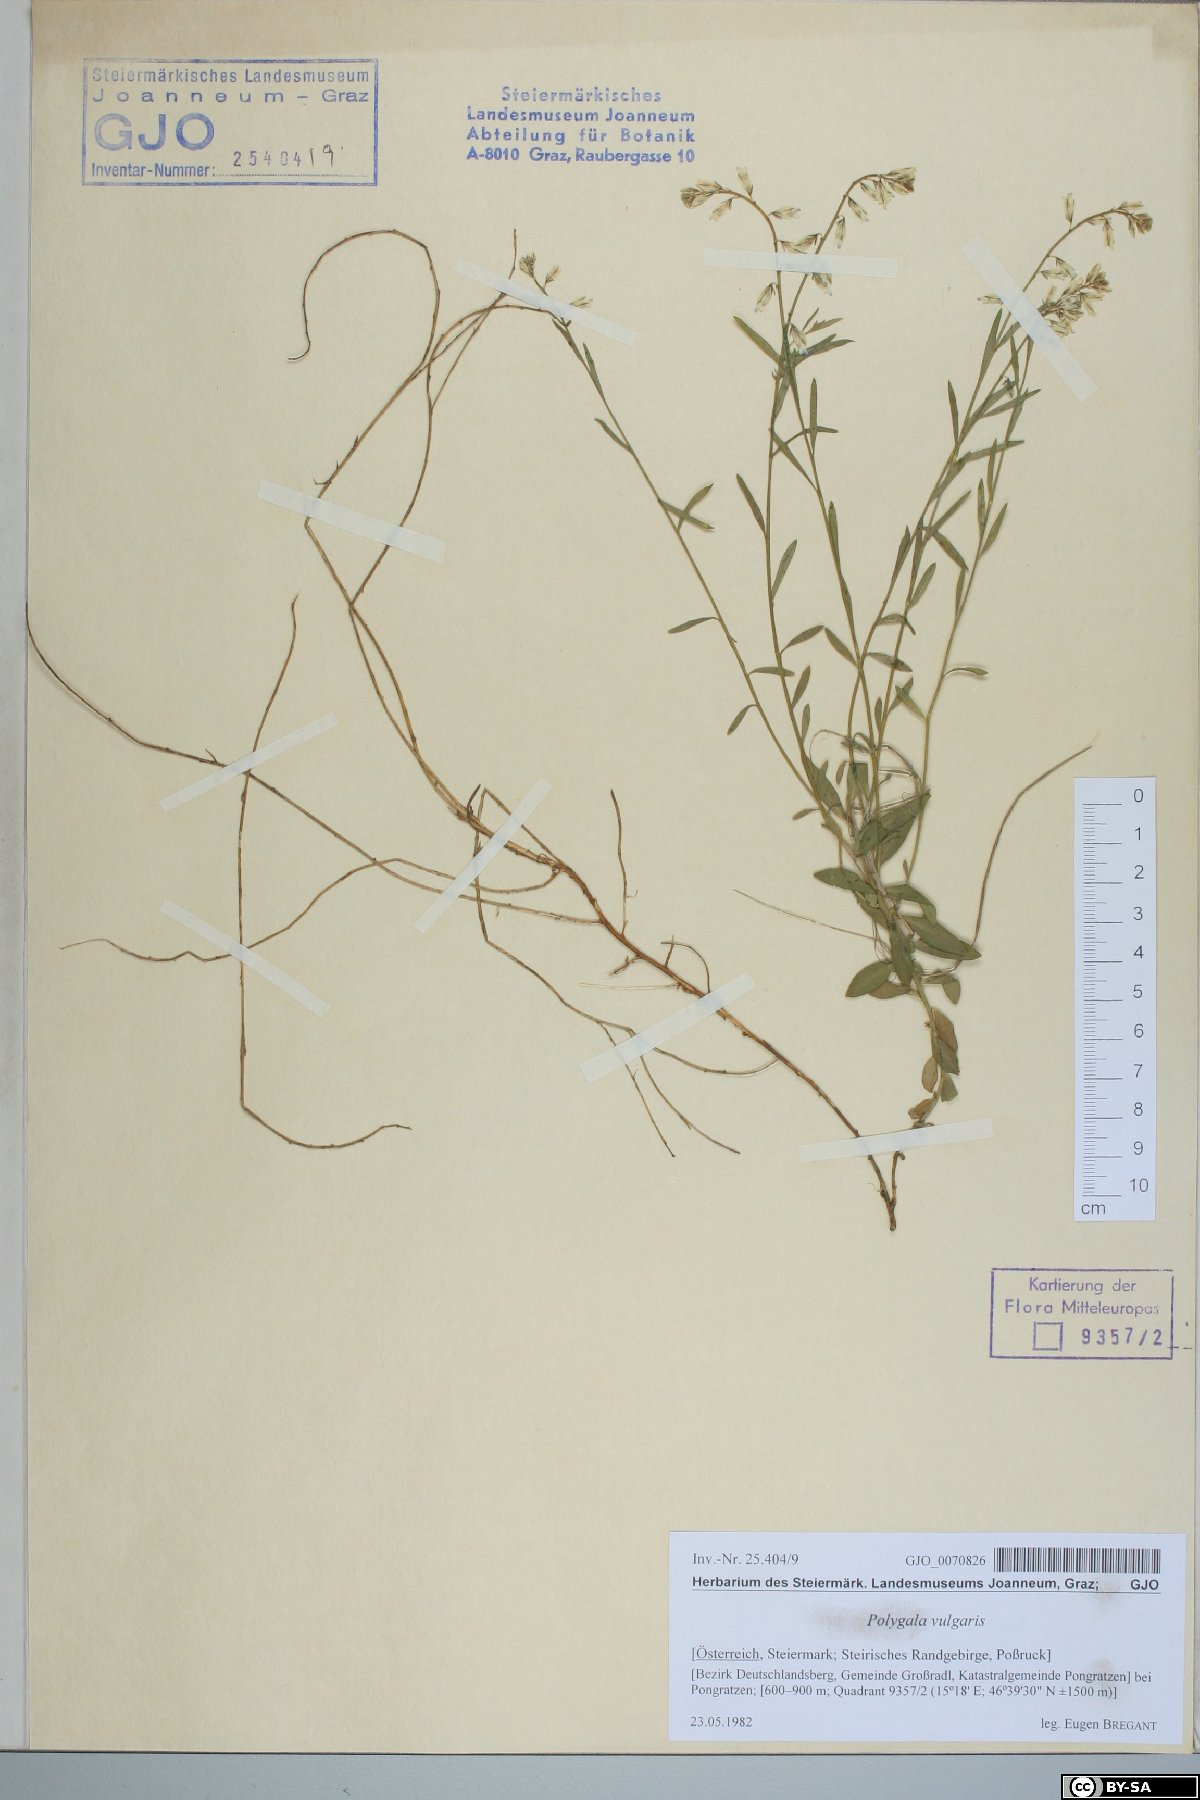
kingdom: Plantae
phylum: Tracheophyta
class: Magnoliopsida
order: Fabales
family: Polygalaceae
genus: Polygala
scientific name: Polygala vulgaris
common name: Common milkwort
